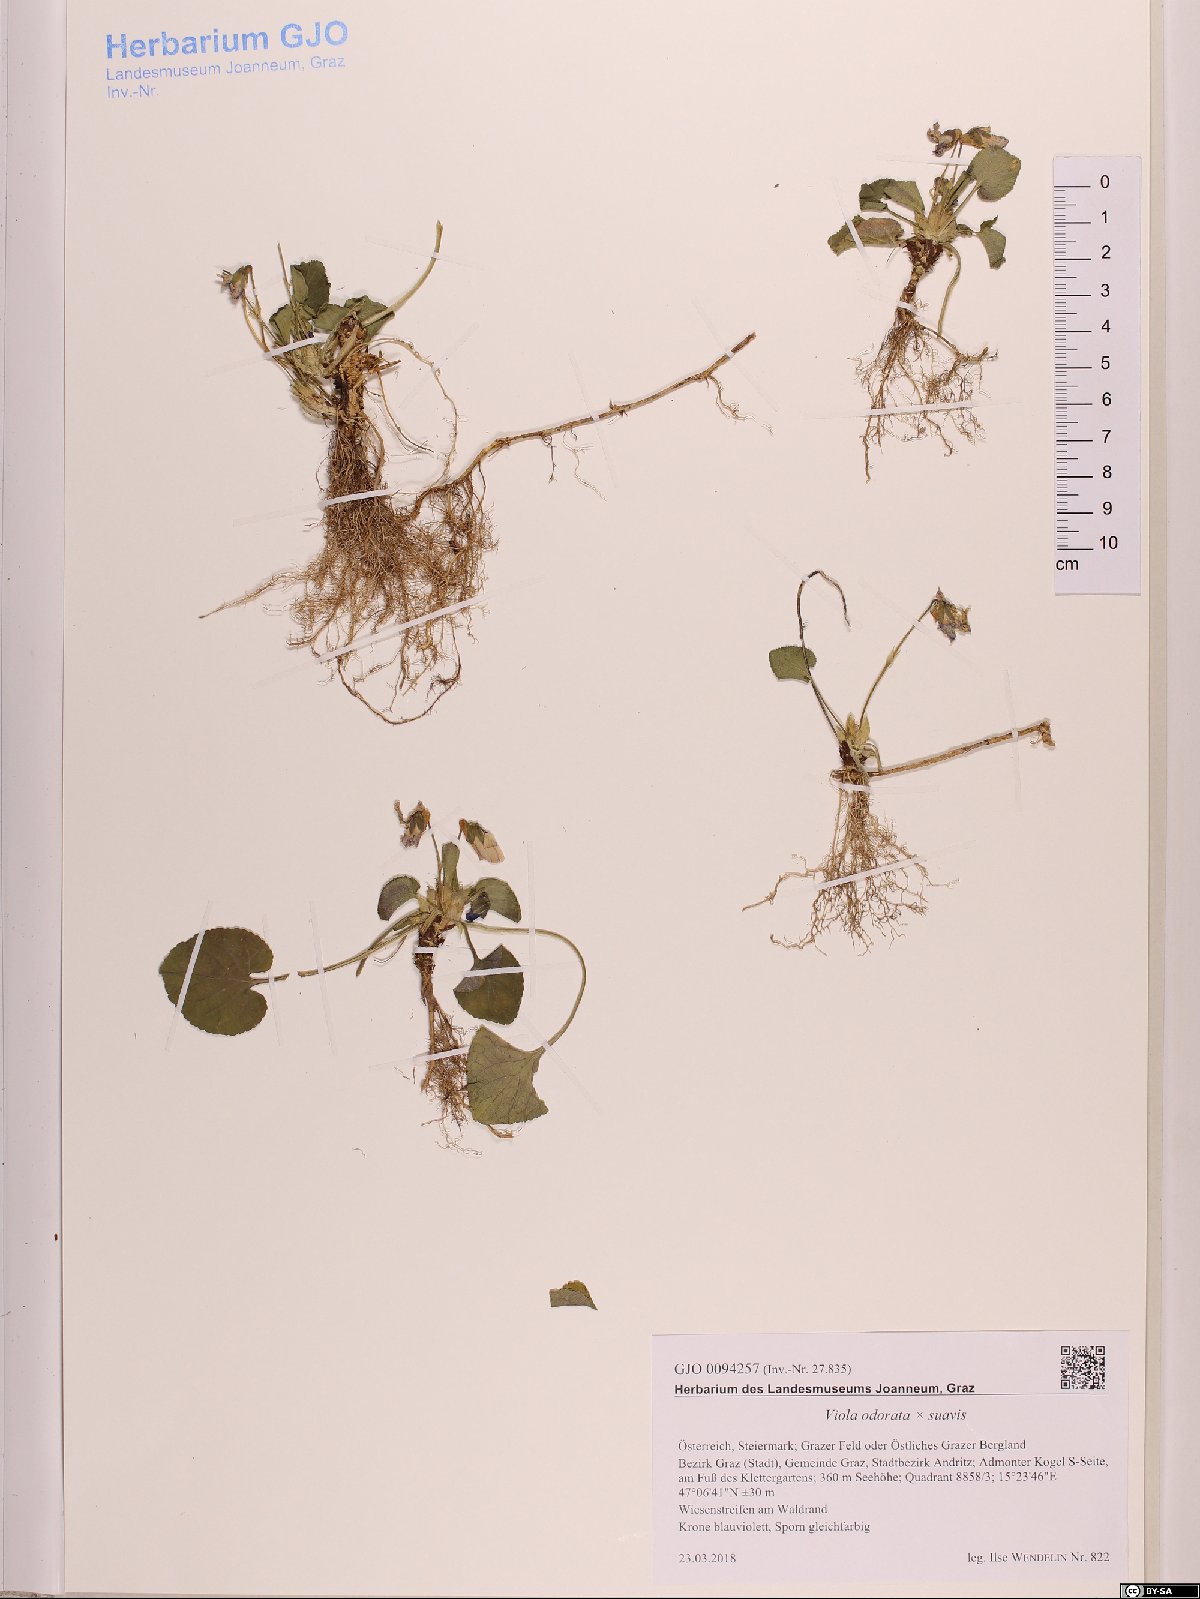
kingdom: Plantae
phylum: Tracheophyta
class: Magnoliopsida
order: Malpighiales
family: Violaceae
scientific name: Violaceae
